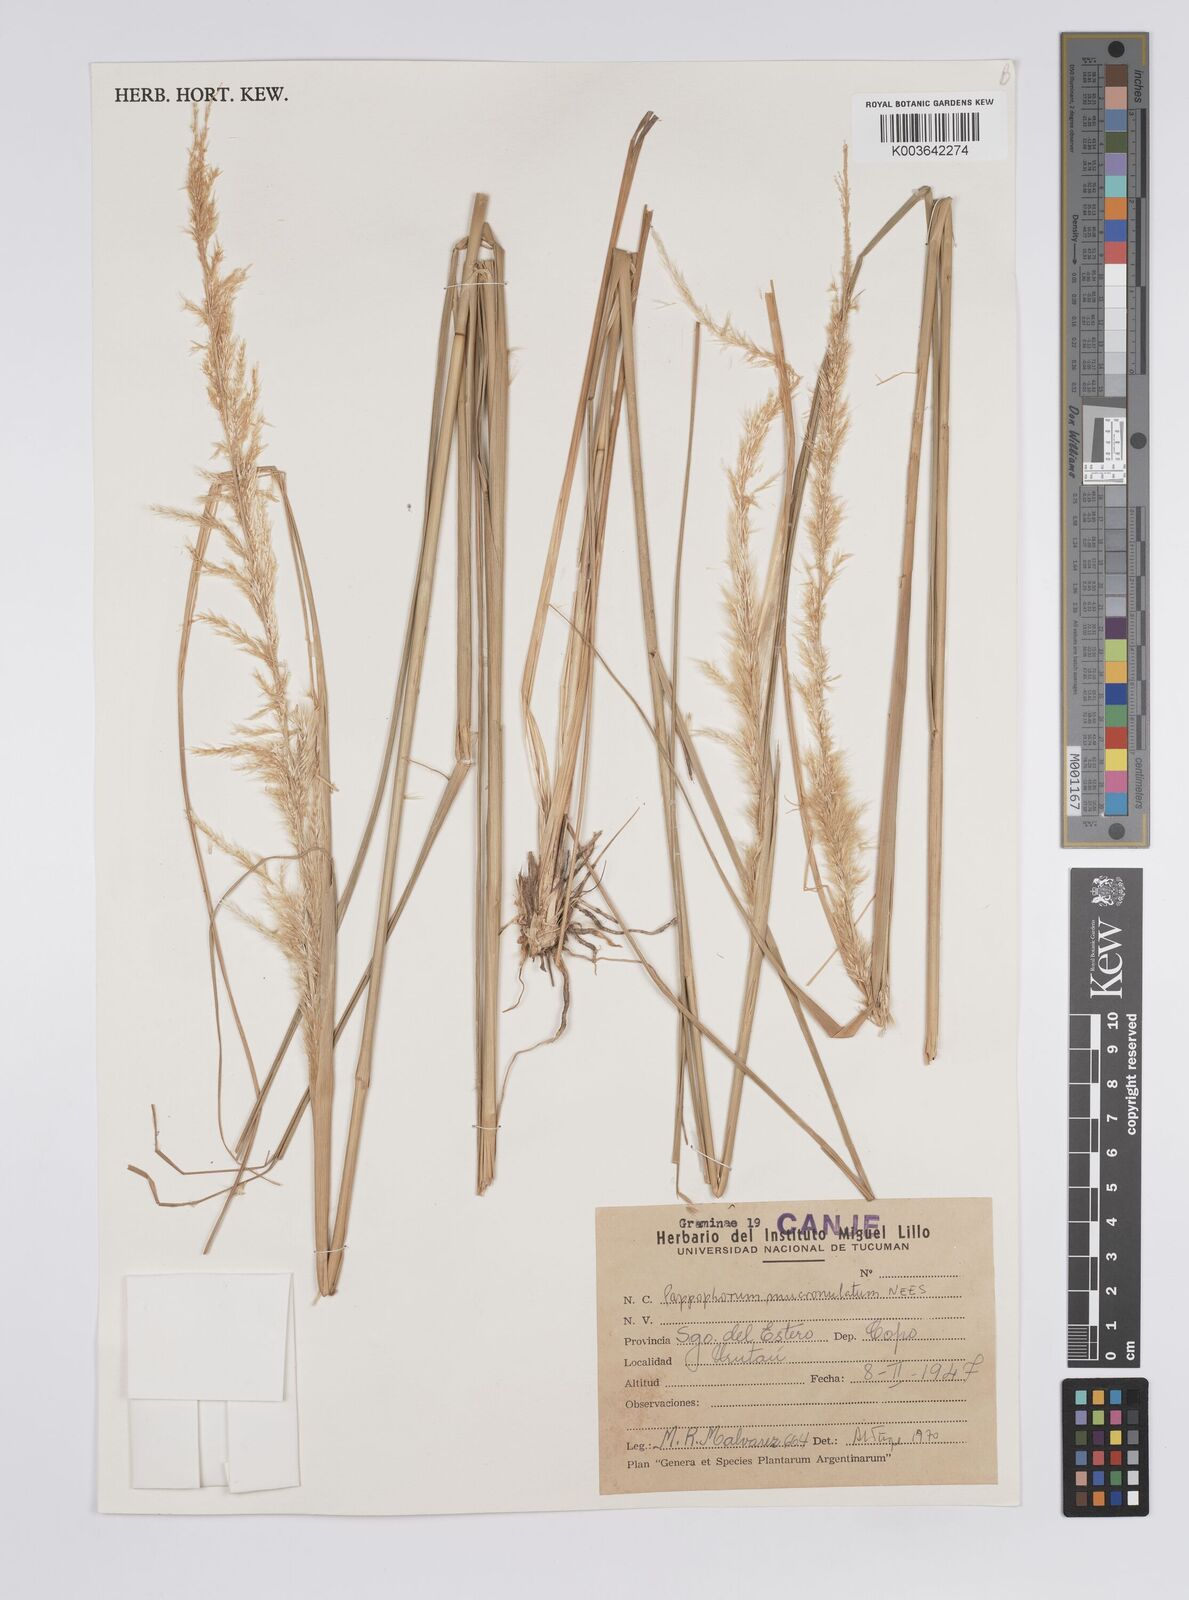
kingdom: Plantae
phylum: Tracheophyta
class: Liliopsida
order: Poales
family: Poaceae
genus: Pappophorum
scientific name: Pappophorum pappiferum
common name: Crabgrass
